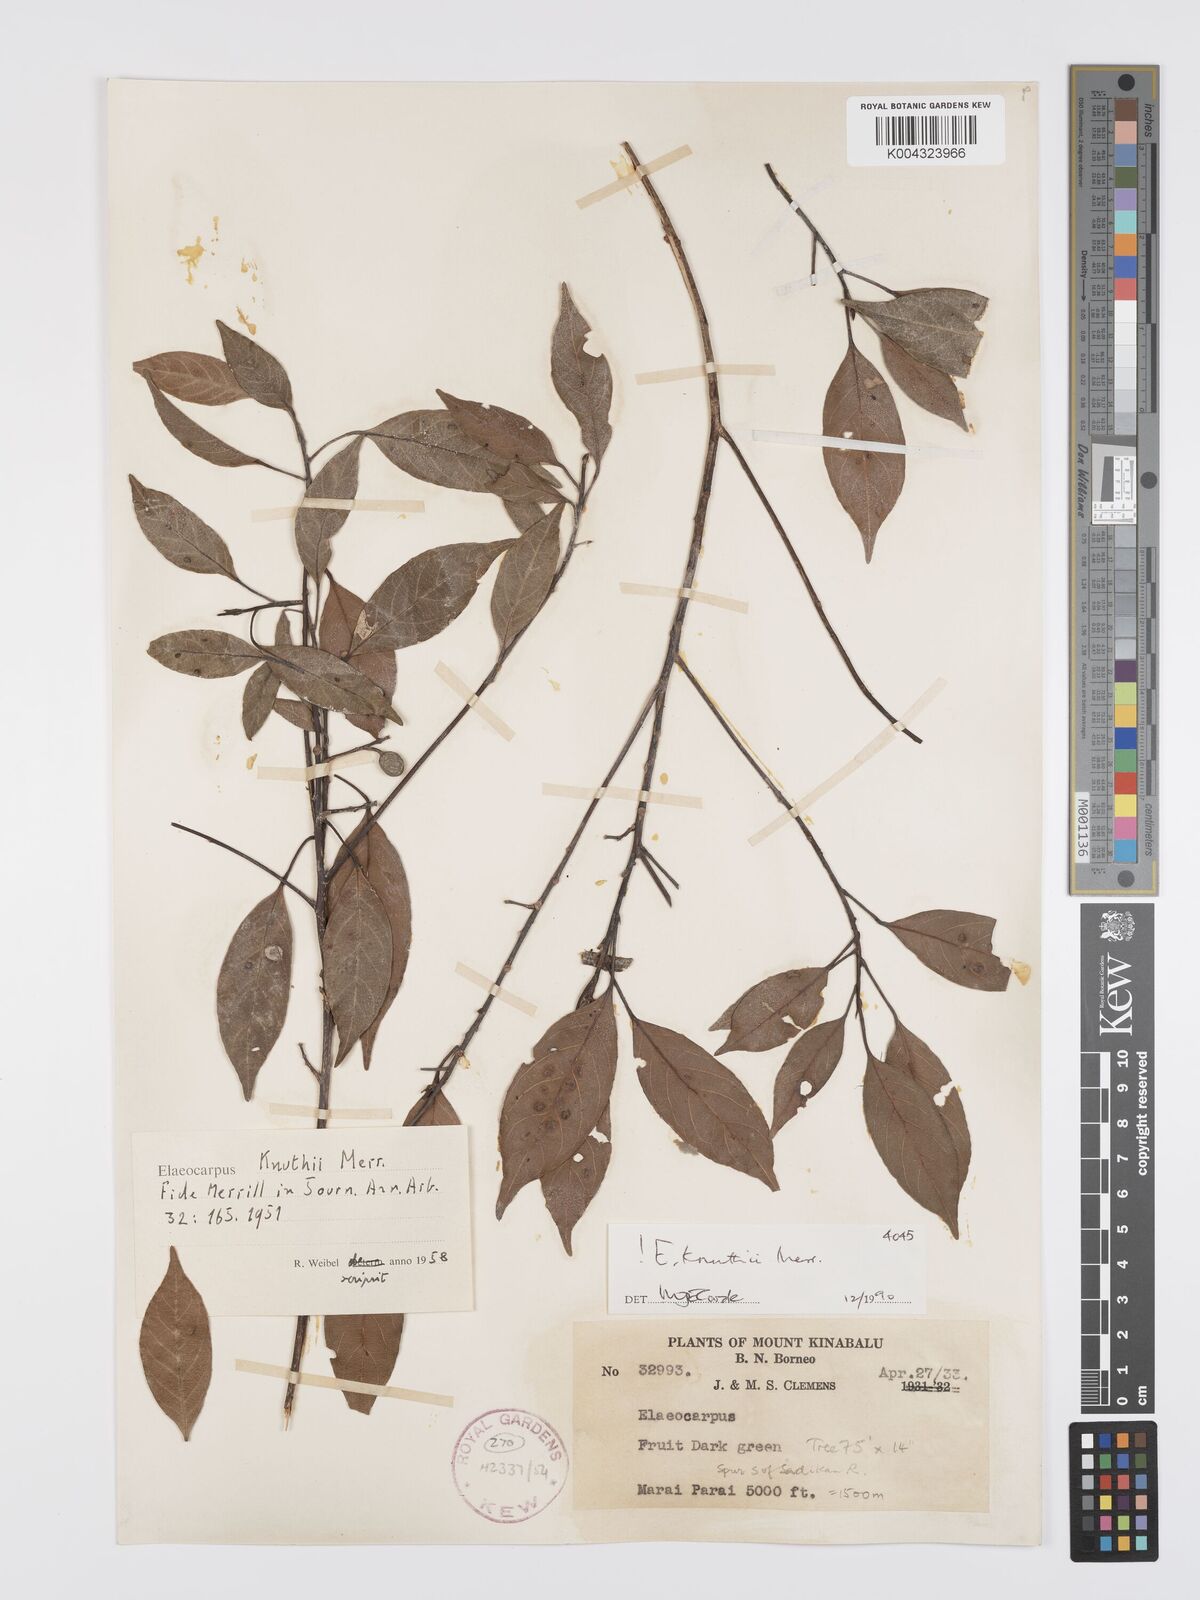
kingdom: Plantae
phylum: Tracheophyta
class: Magnoliopsida
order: Oxalidales
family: Elaeocarpaceae
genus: Elaeocarpus
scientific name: Elaeocarpus knuthii
